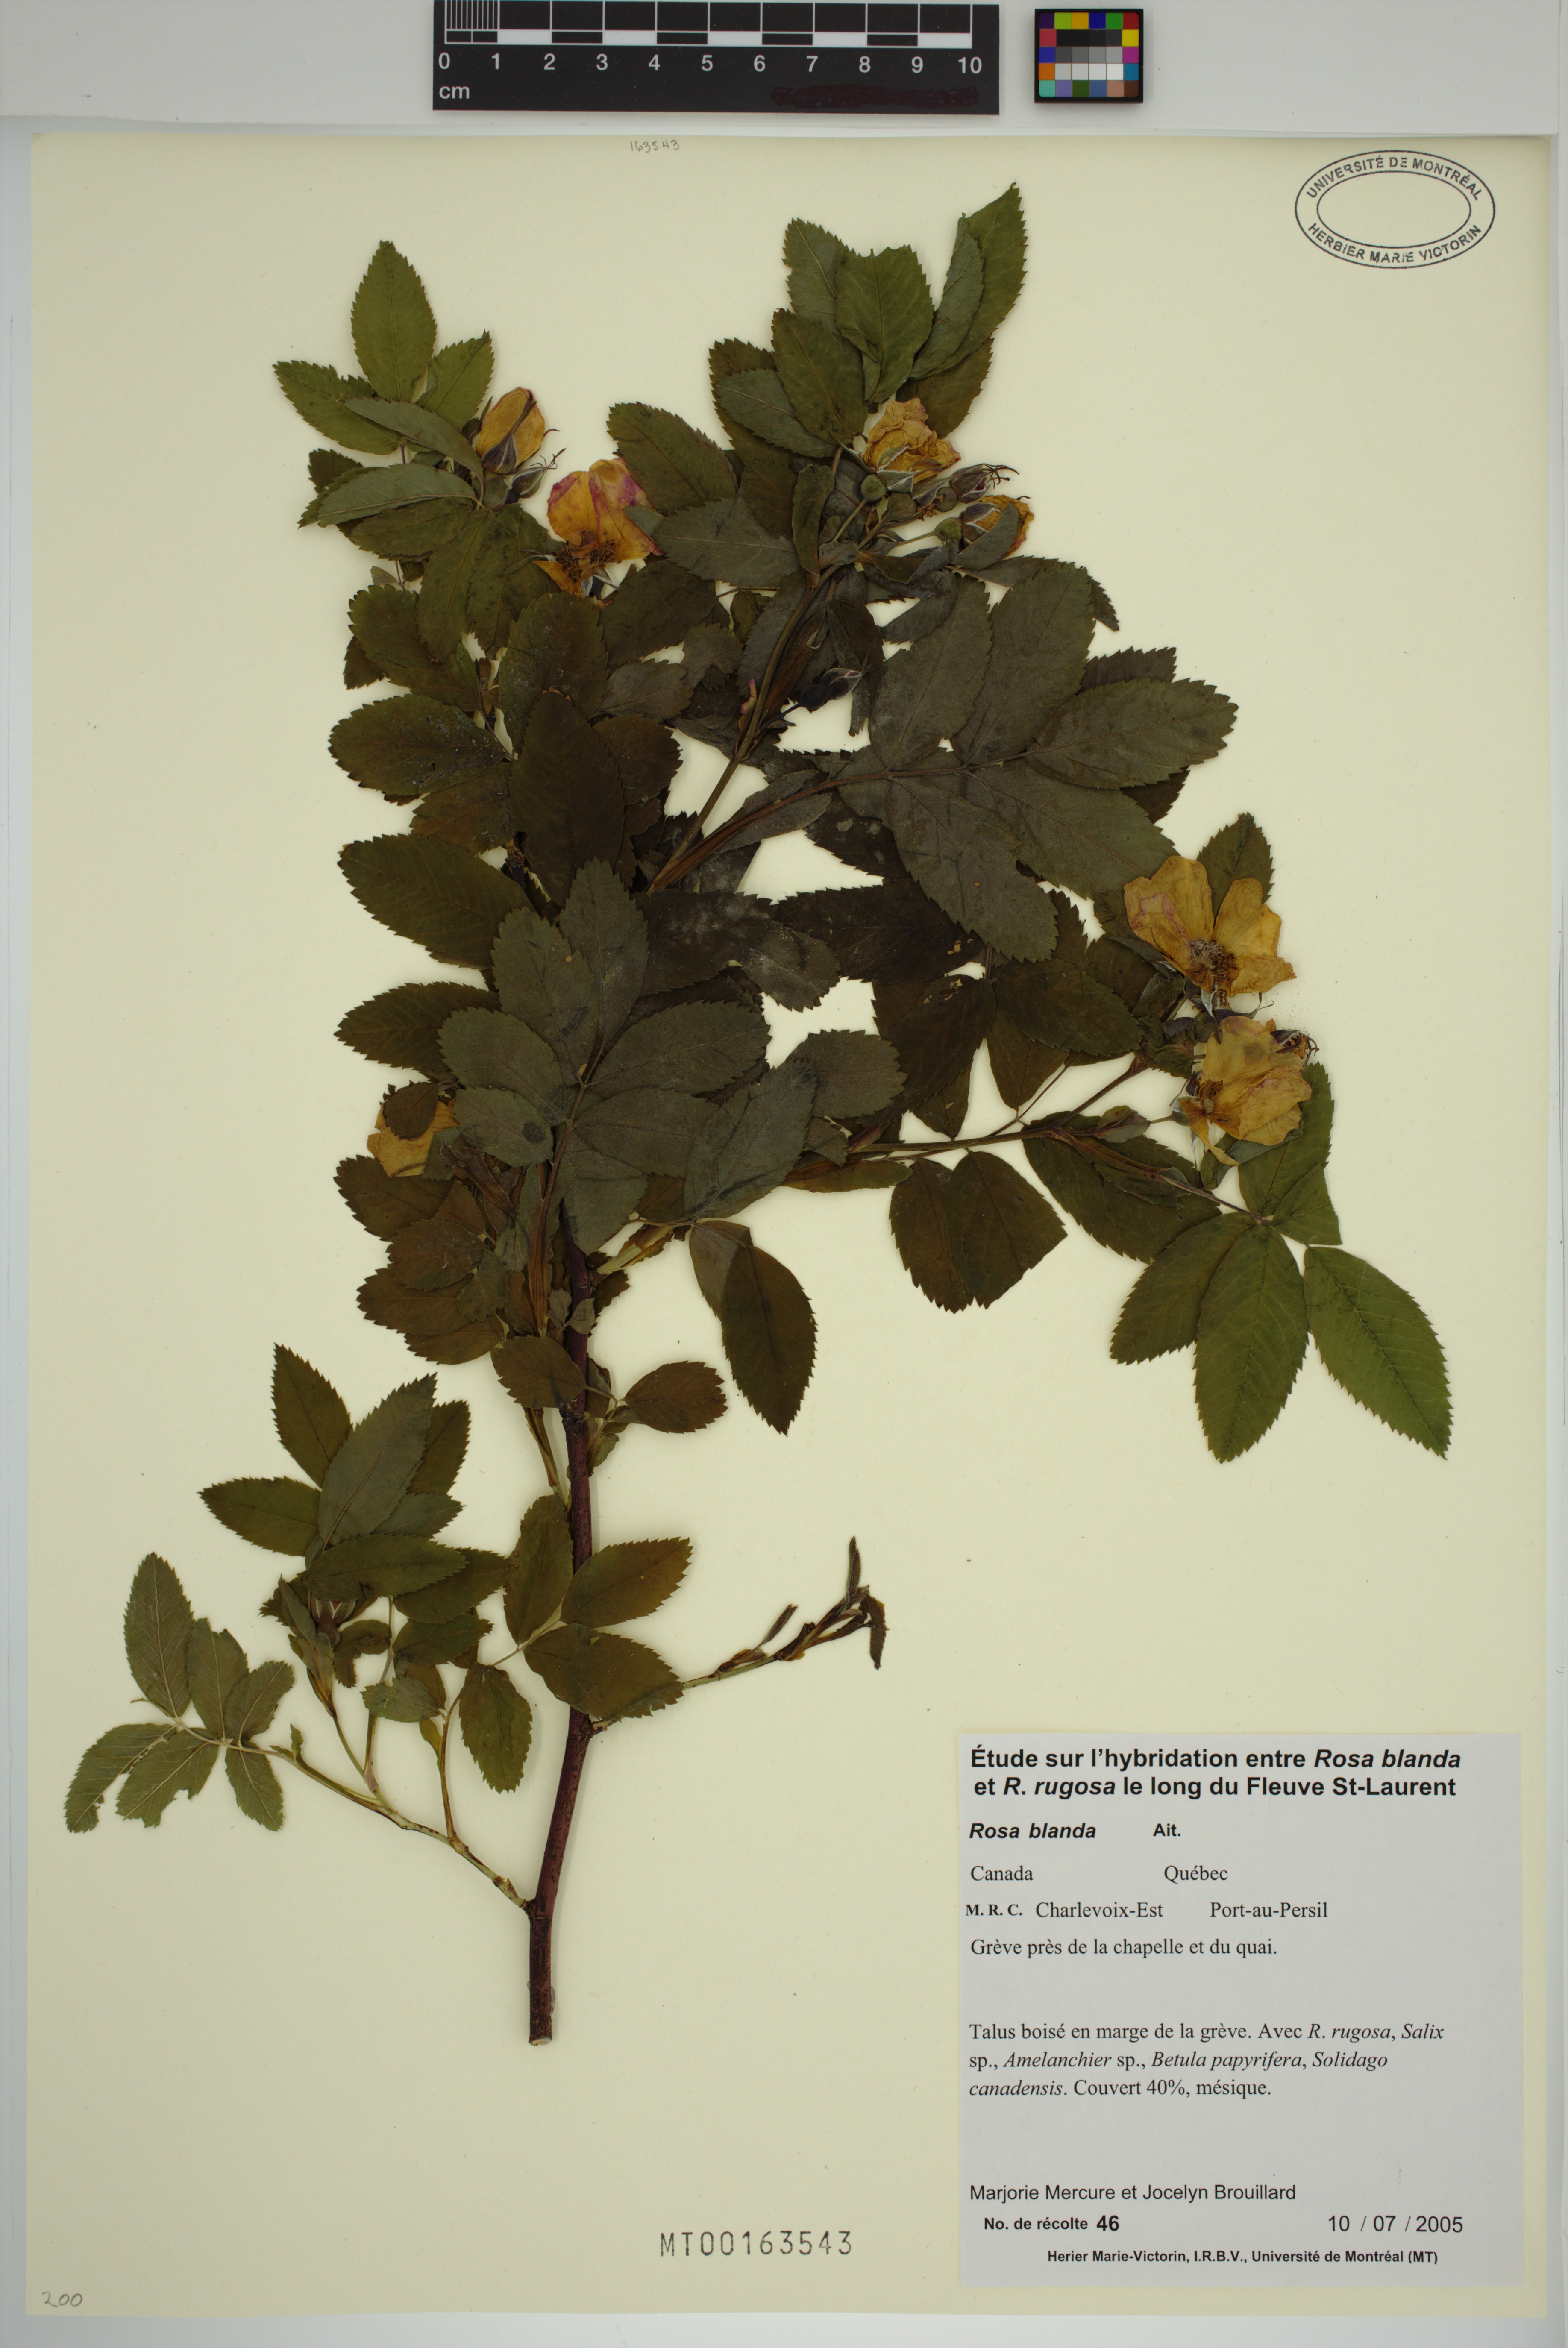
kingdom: Plantae
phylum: Tracheophyta
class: Magnoliopsida
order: Rosales
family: Rosaceae
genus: Rosa
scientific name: Rosa blanda
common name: Smooth rose
